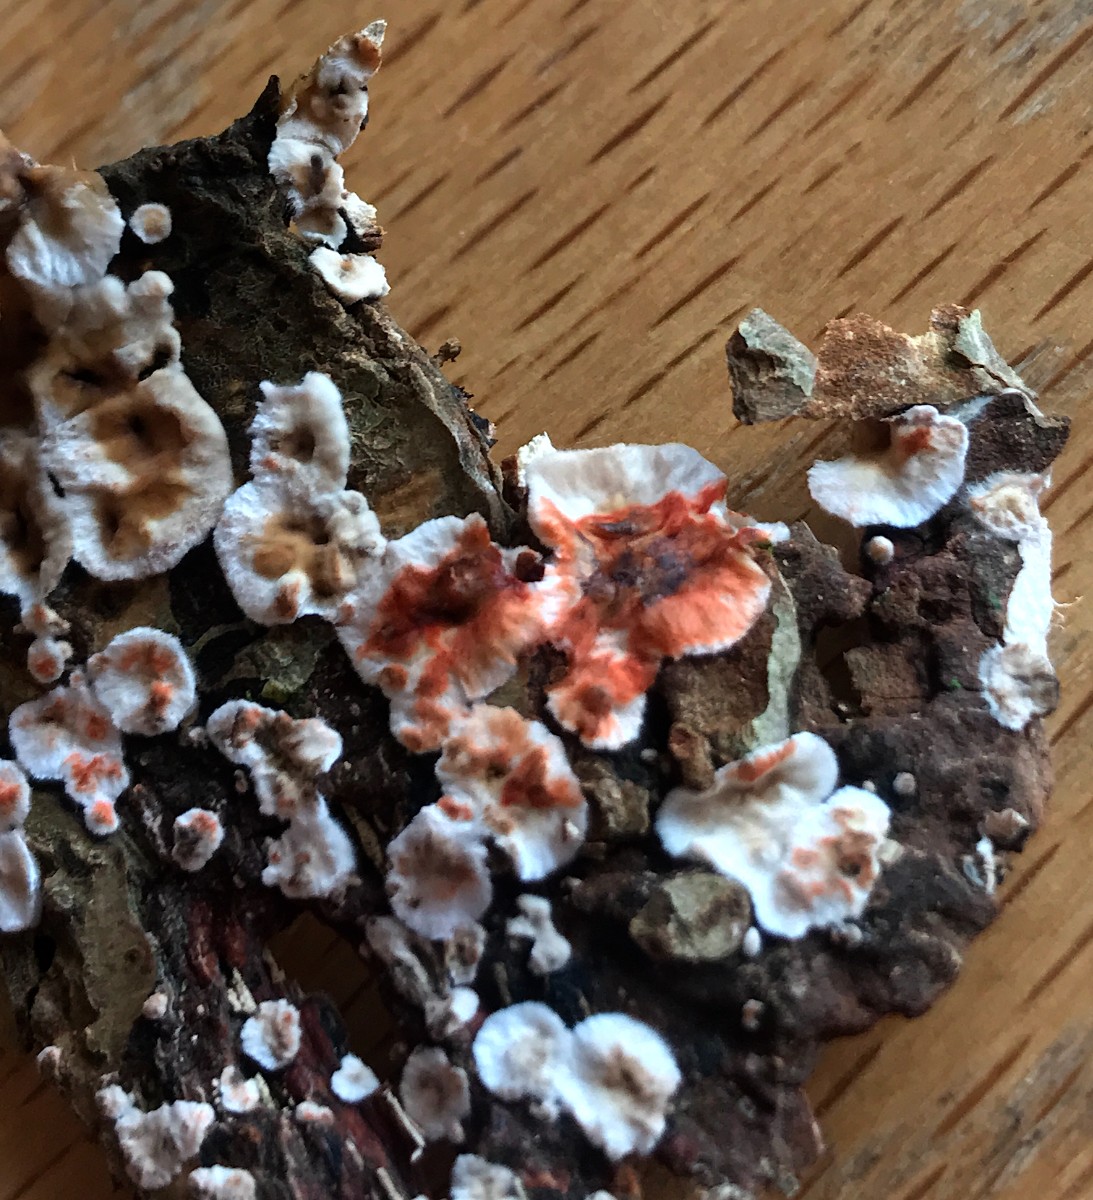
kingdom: Fungi
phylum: Basidiomycota
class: Agaricomycetes
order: Russulales
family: Stereaceae
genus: Stereum
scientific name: Stereum rugosum
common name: rynket lædersvamp
